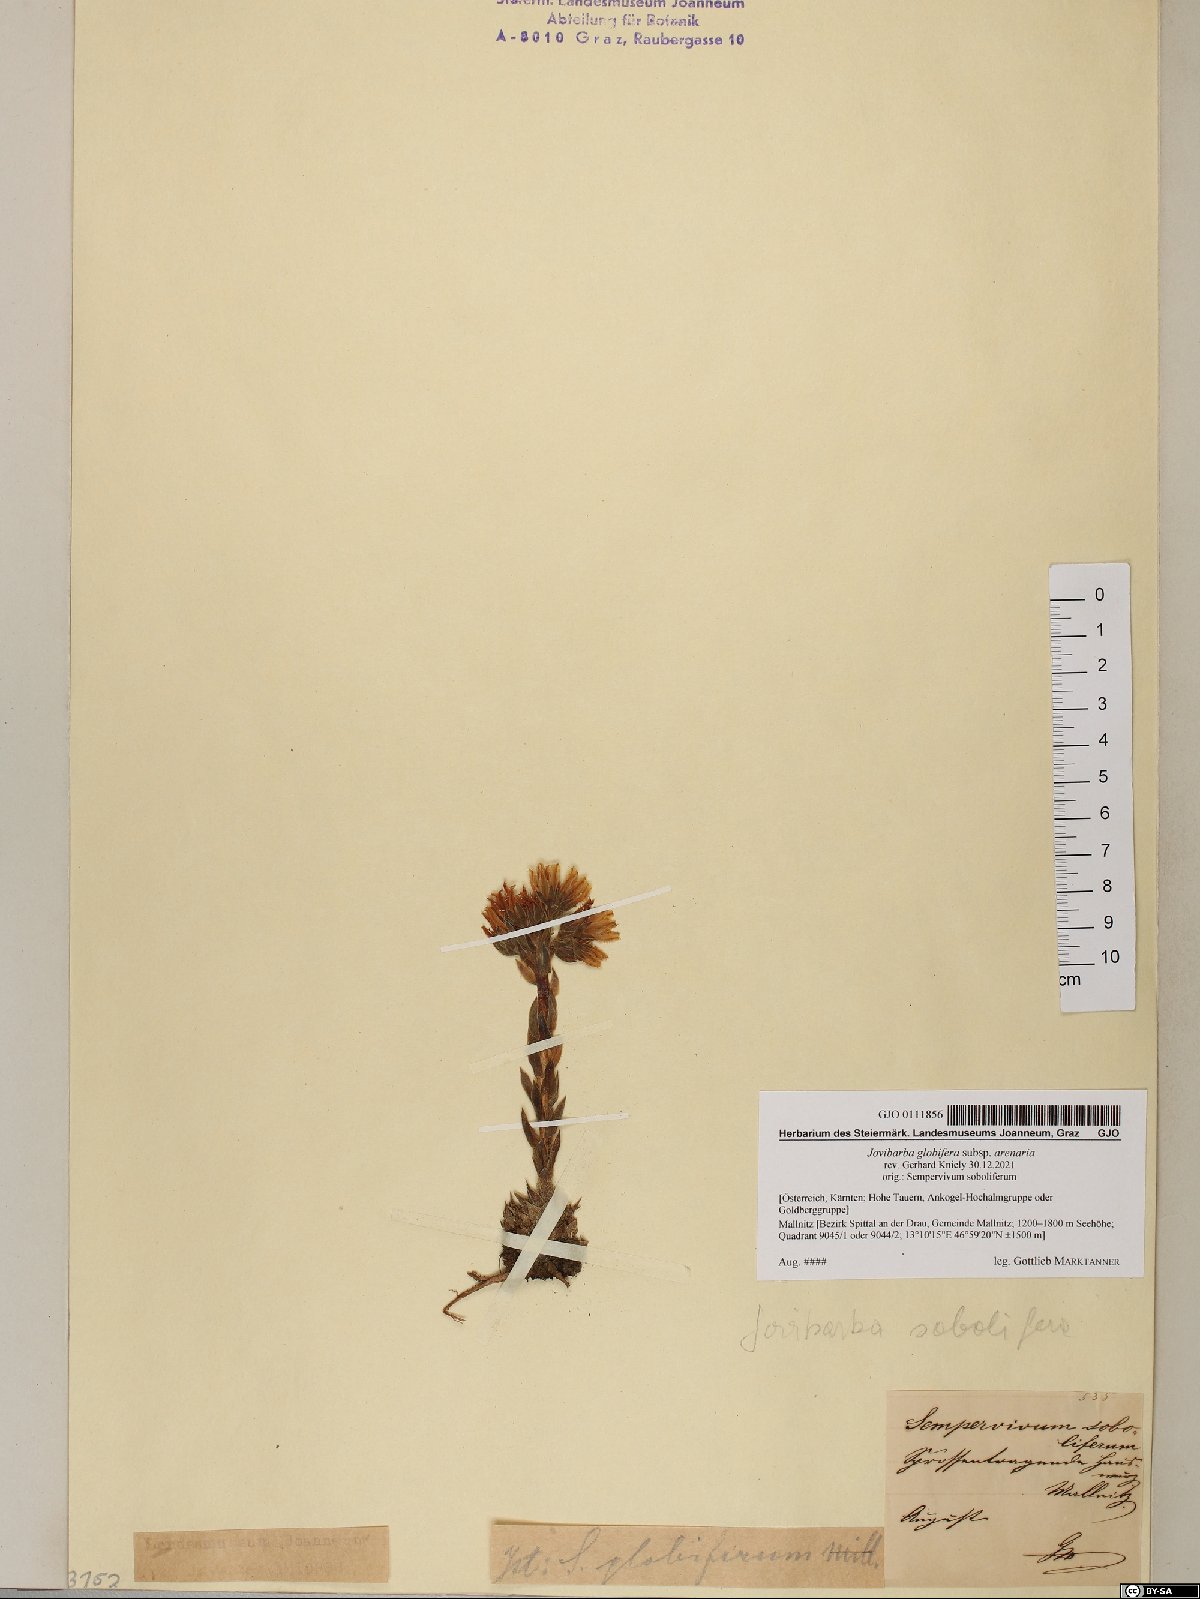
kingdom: Plantae
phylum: Tracheophyta
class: Magnoliopsida
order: Saxifragales
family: Crassulaceae
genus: Sempervivum
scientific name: Sempervivum globiferum
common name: Rolling hen-and-chicks
